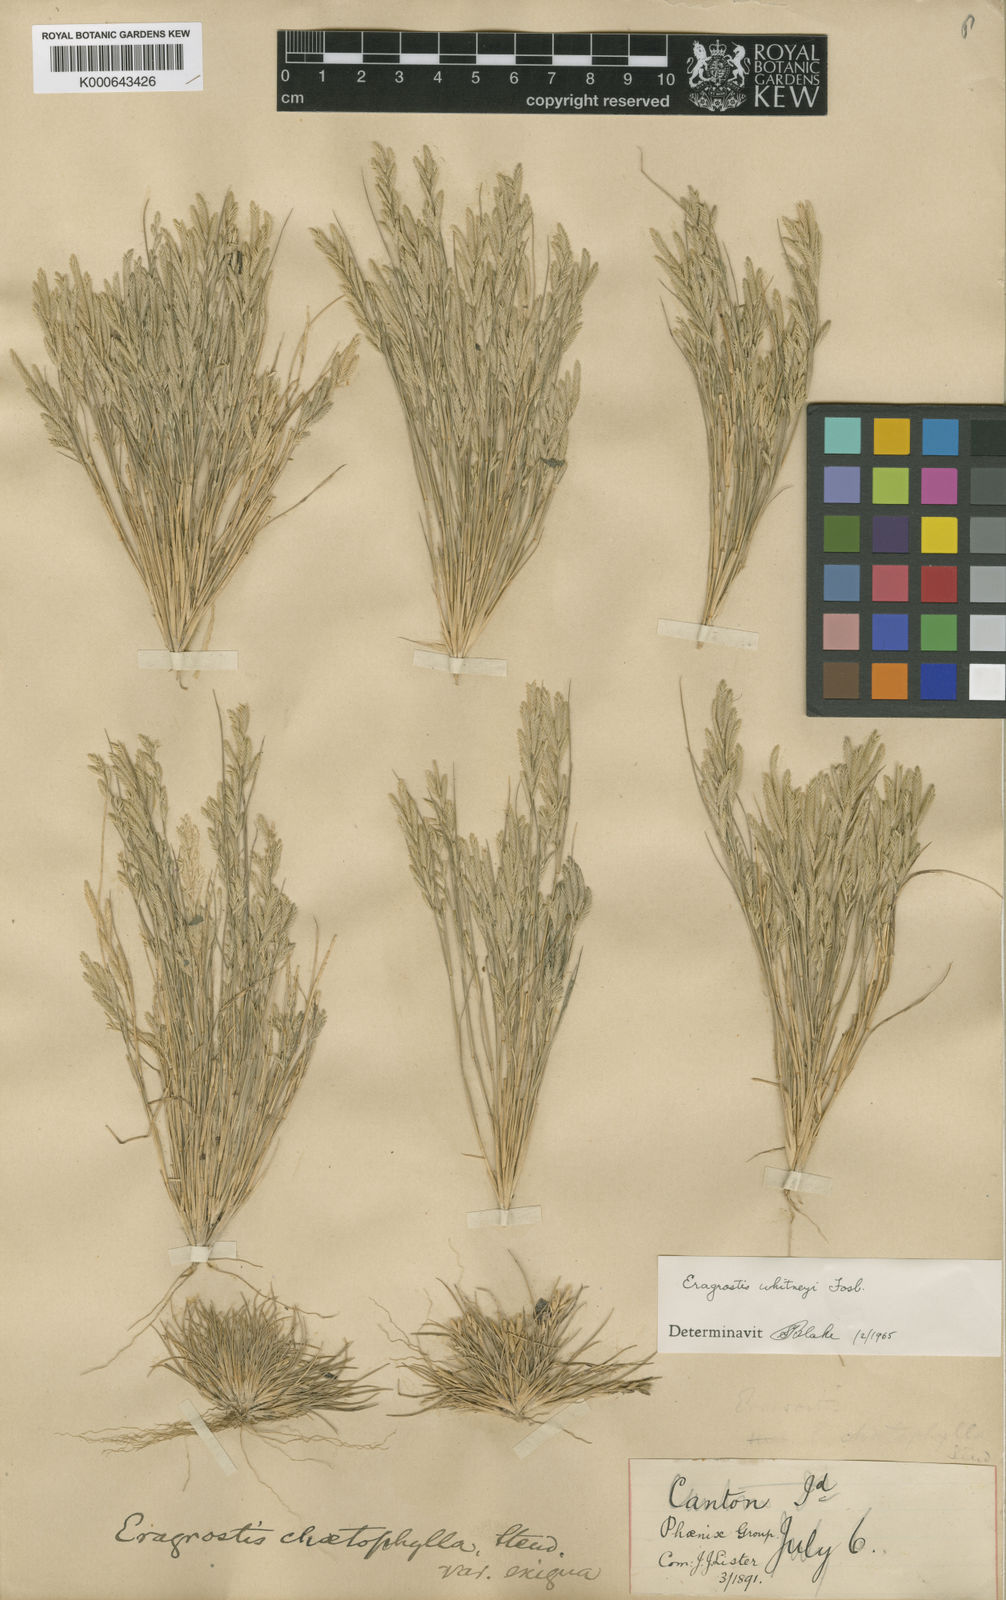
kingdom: Plantae
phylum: Tracheophyta
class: Liliopsida
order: Poales
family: Poaceae
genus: Eragrostis
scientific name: Eragrostis parviflora
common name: Weeping love-grass
